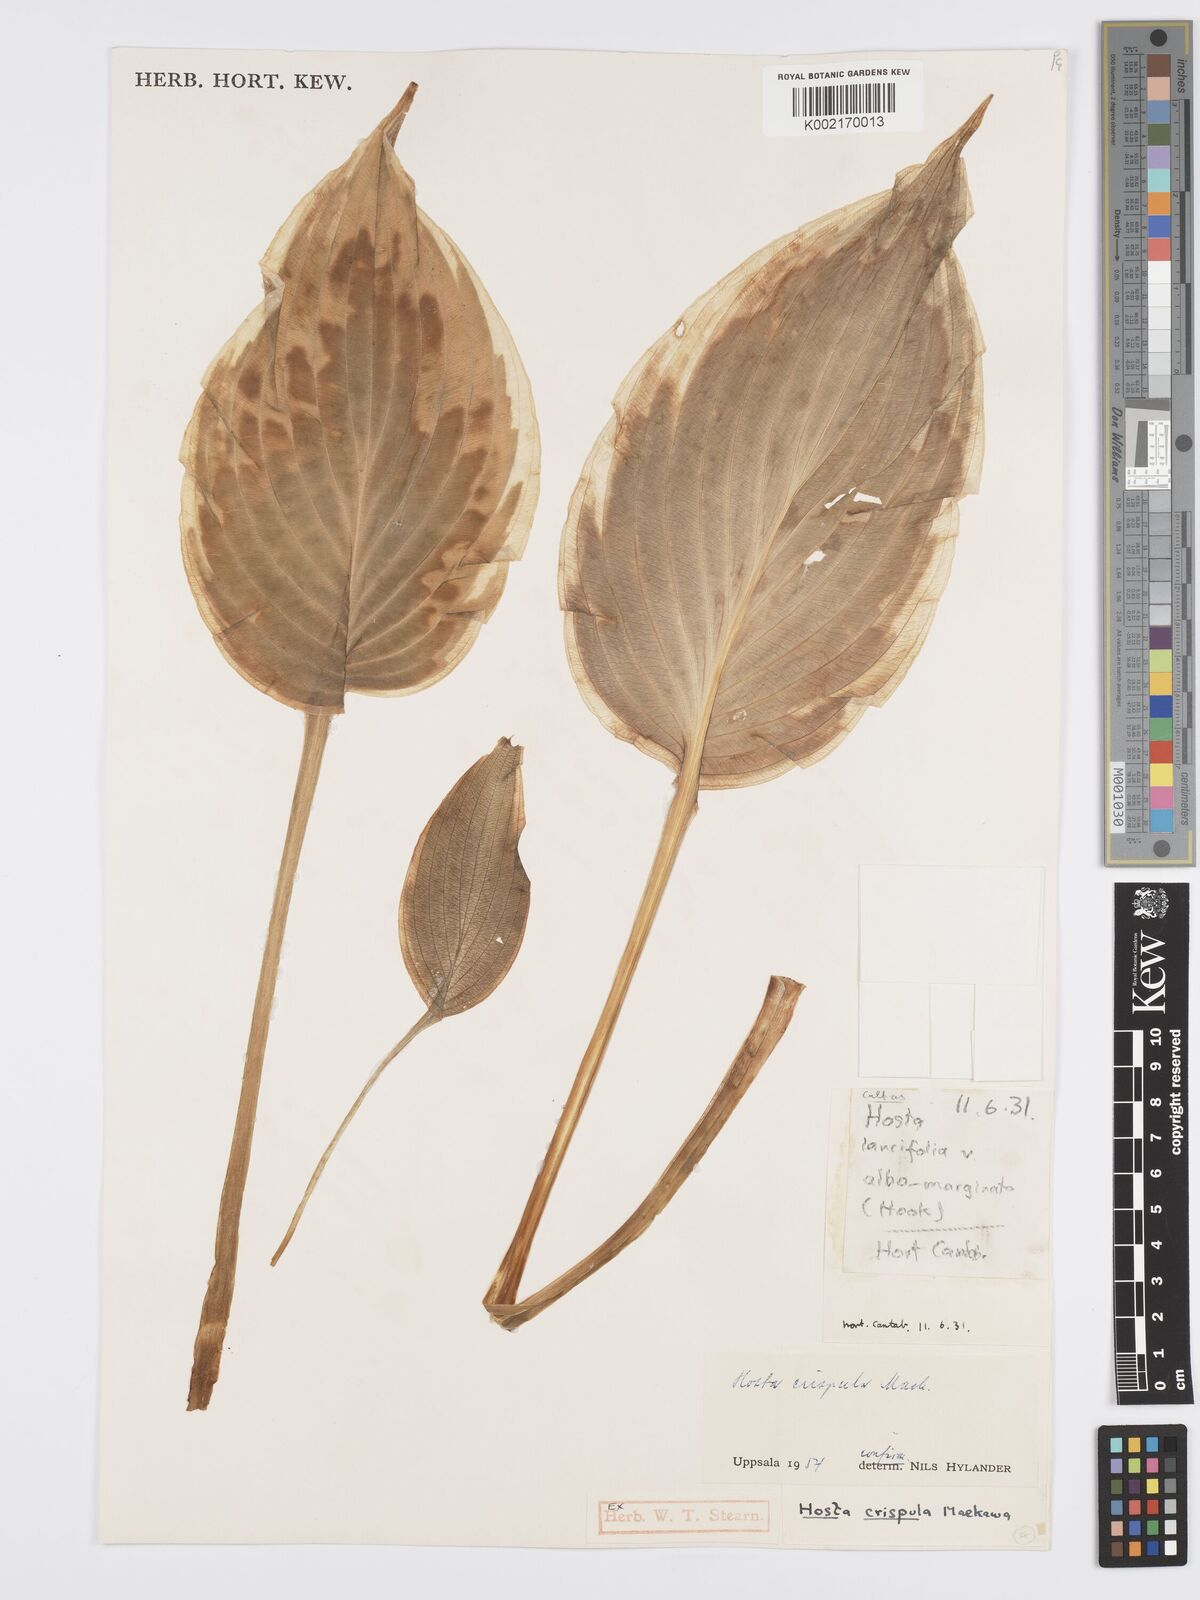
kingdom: Plantae
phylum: Tracheophyta
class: Liliopsida
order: Asparagales
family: Asparagaceae
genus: Hosta
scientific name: Hosta sieboldiana
